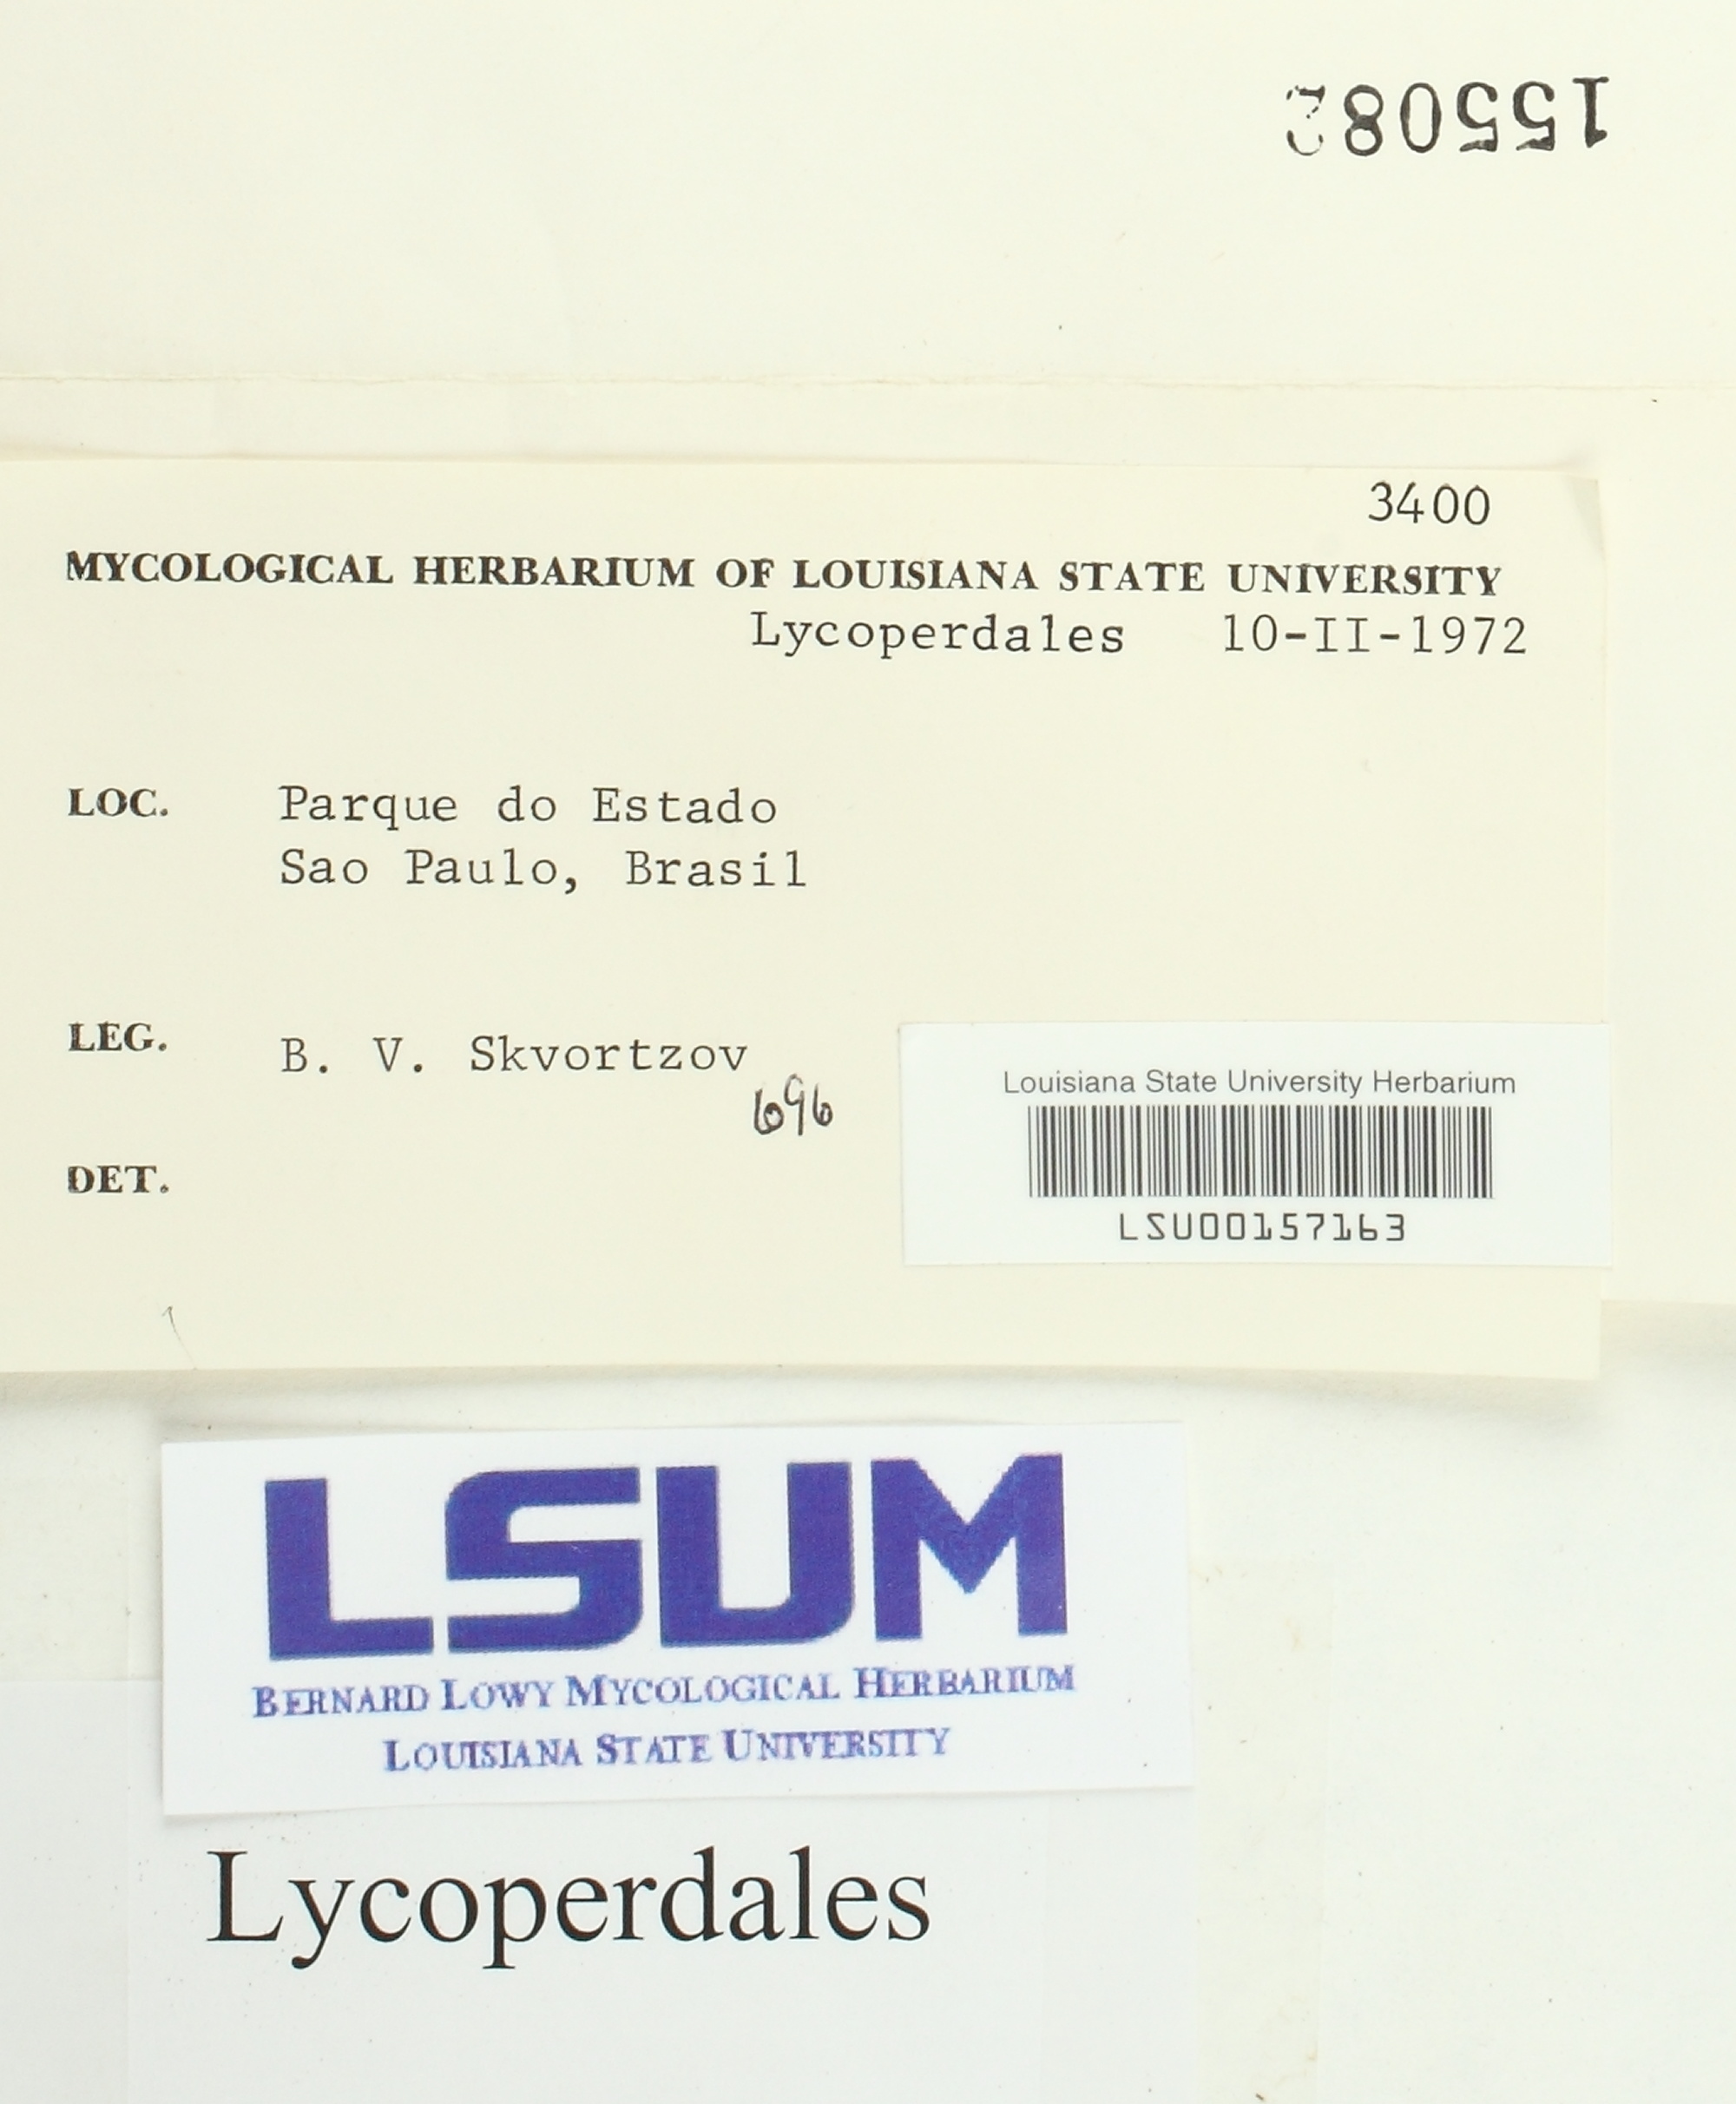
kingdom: Fungi
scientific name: Fungi
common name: Fungi
